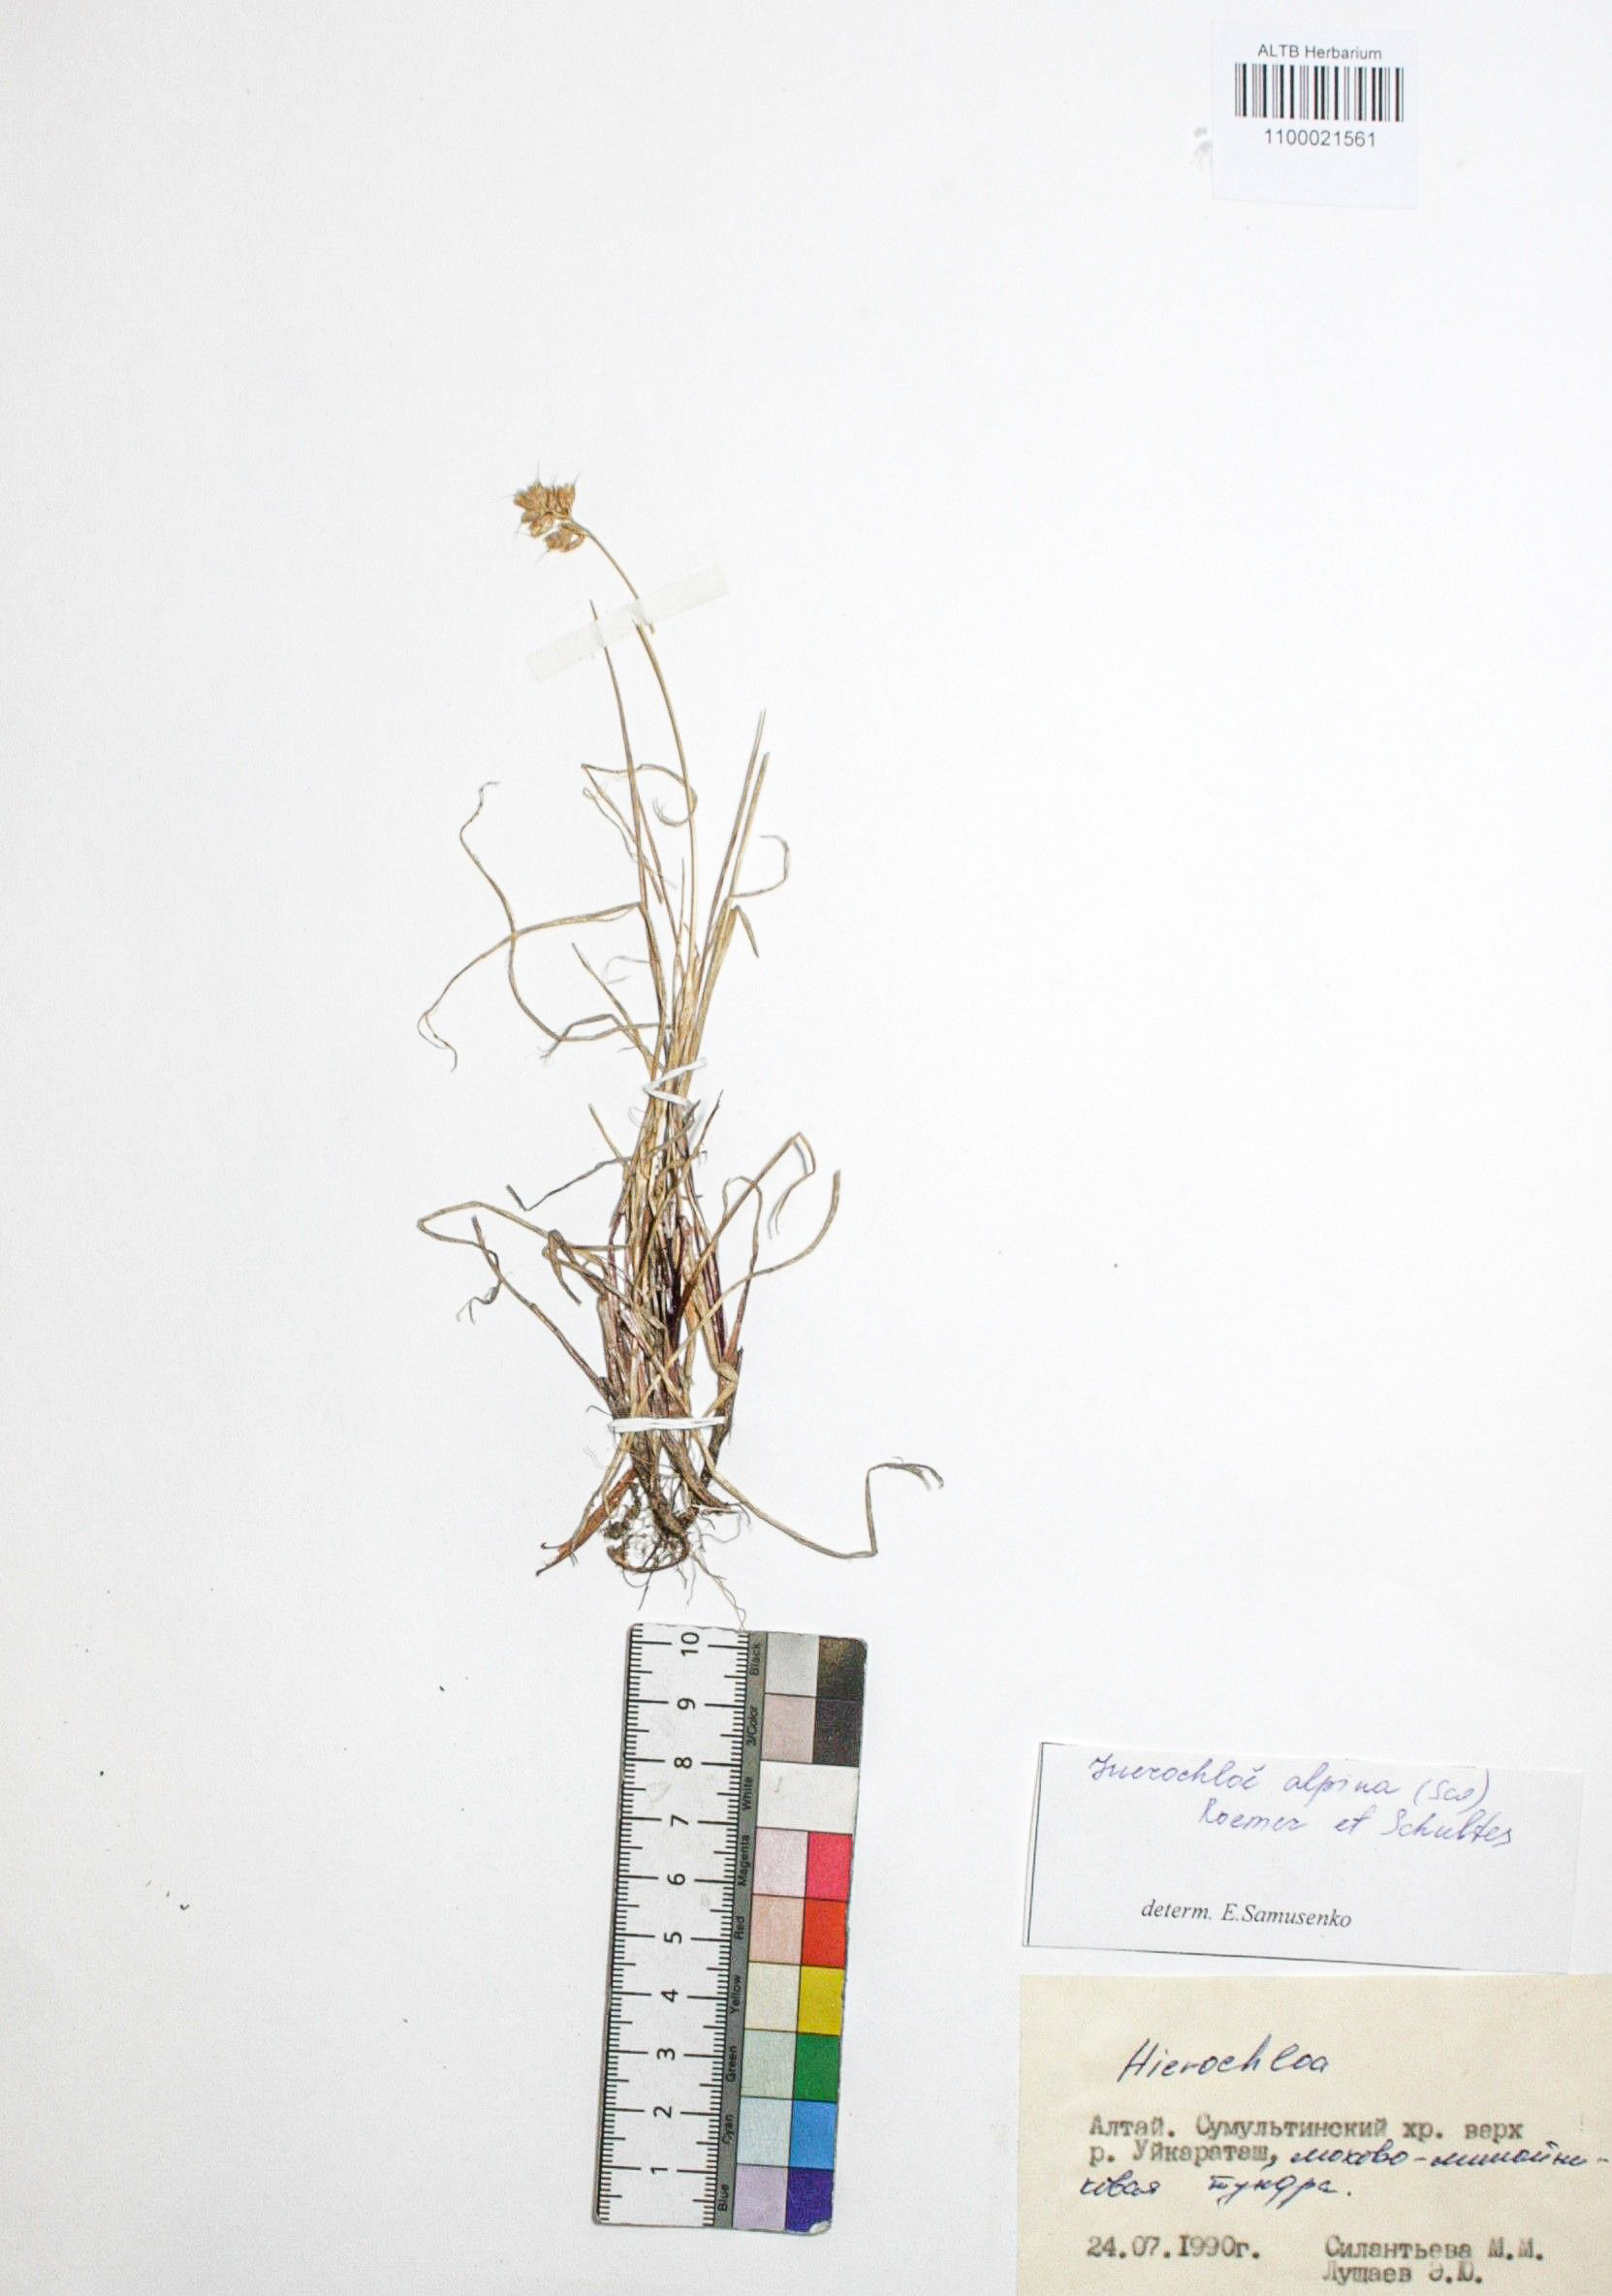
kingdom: Plantae
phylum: Tracheophyta
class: Liliopsida
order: Poales
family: Poaceae
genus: Anthoxanthum
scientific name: Anthoxanthum monticola
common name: Alpine sweetgrass
